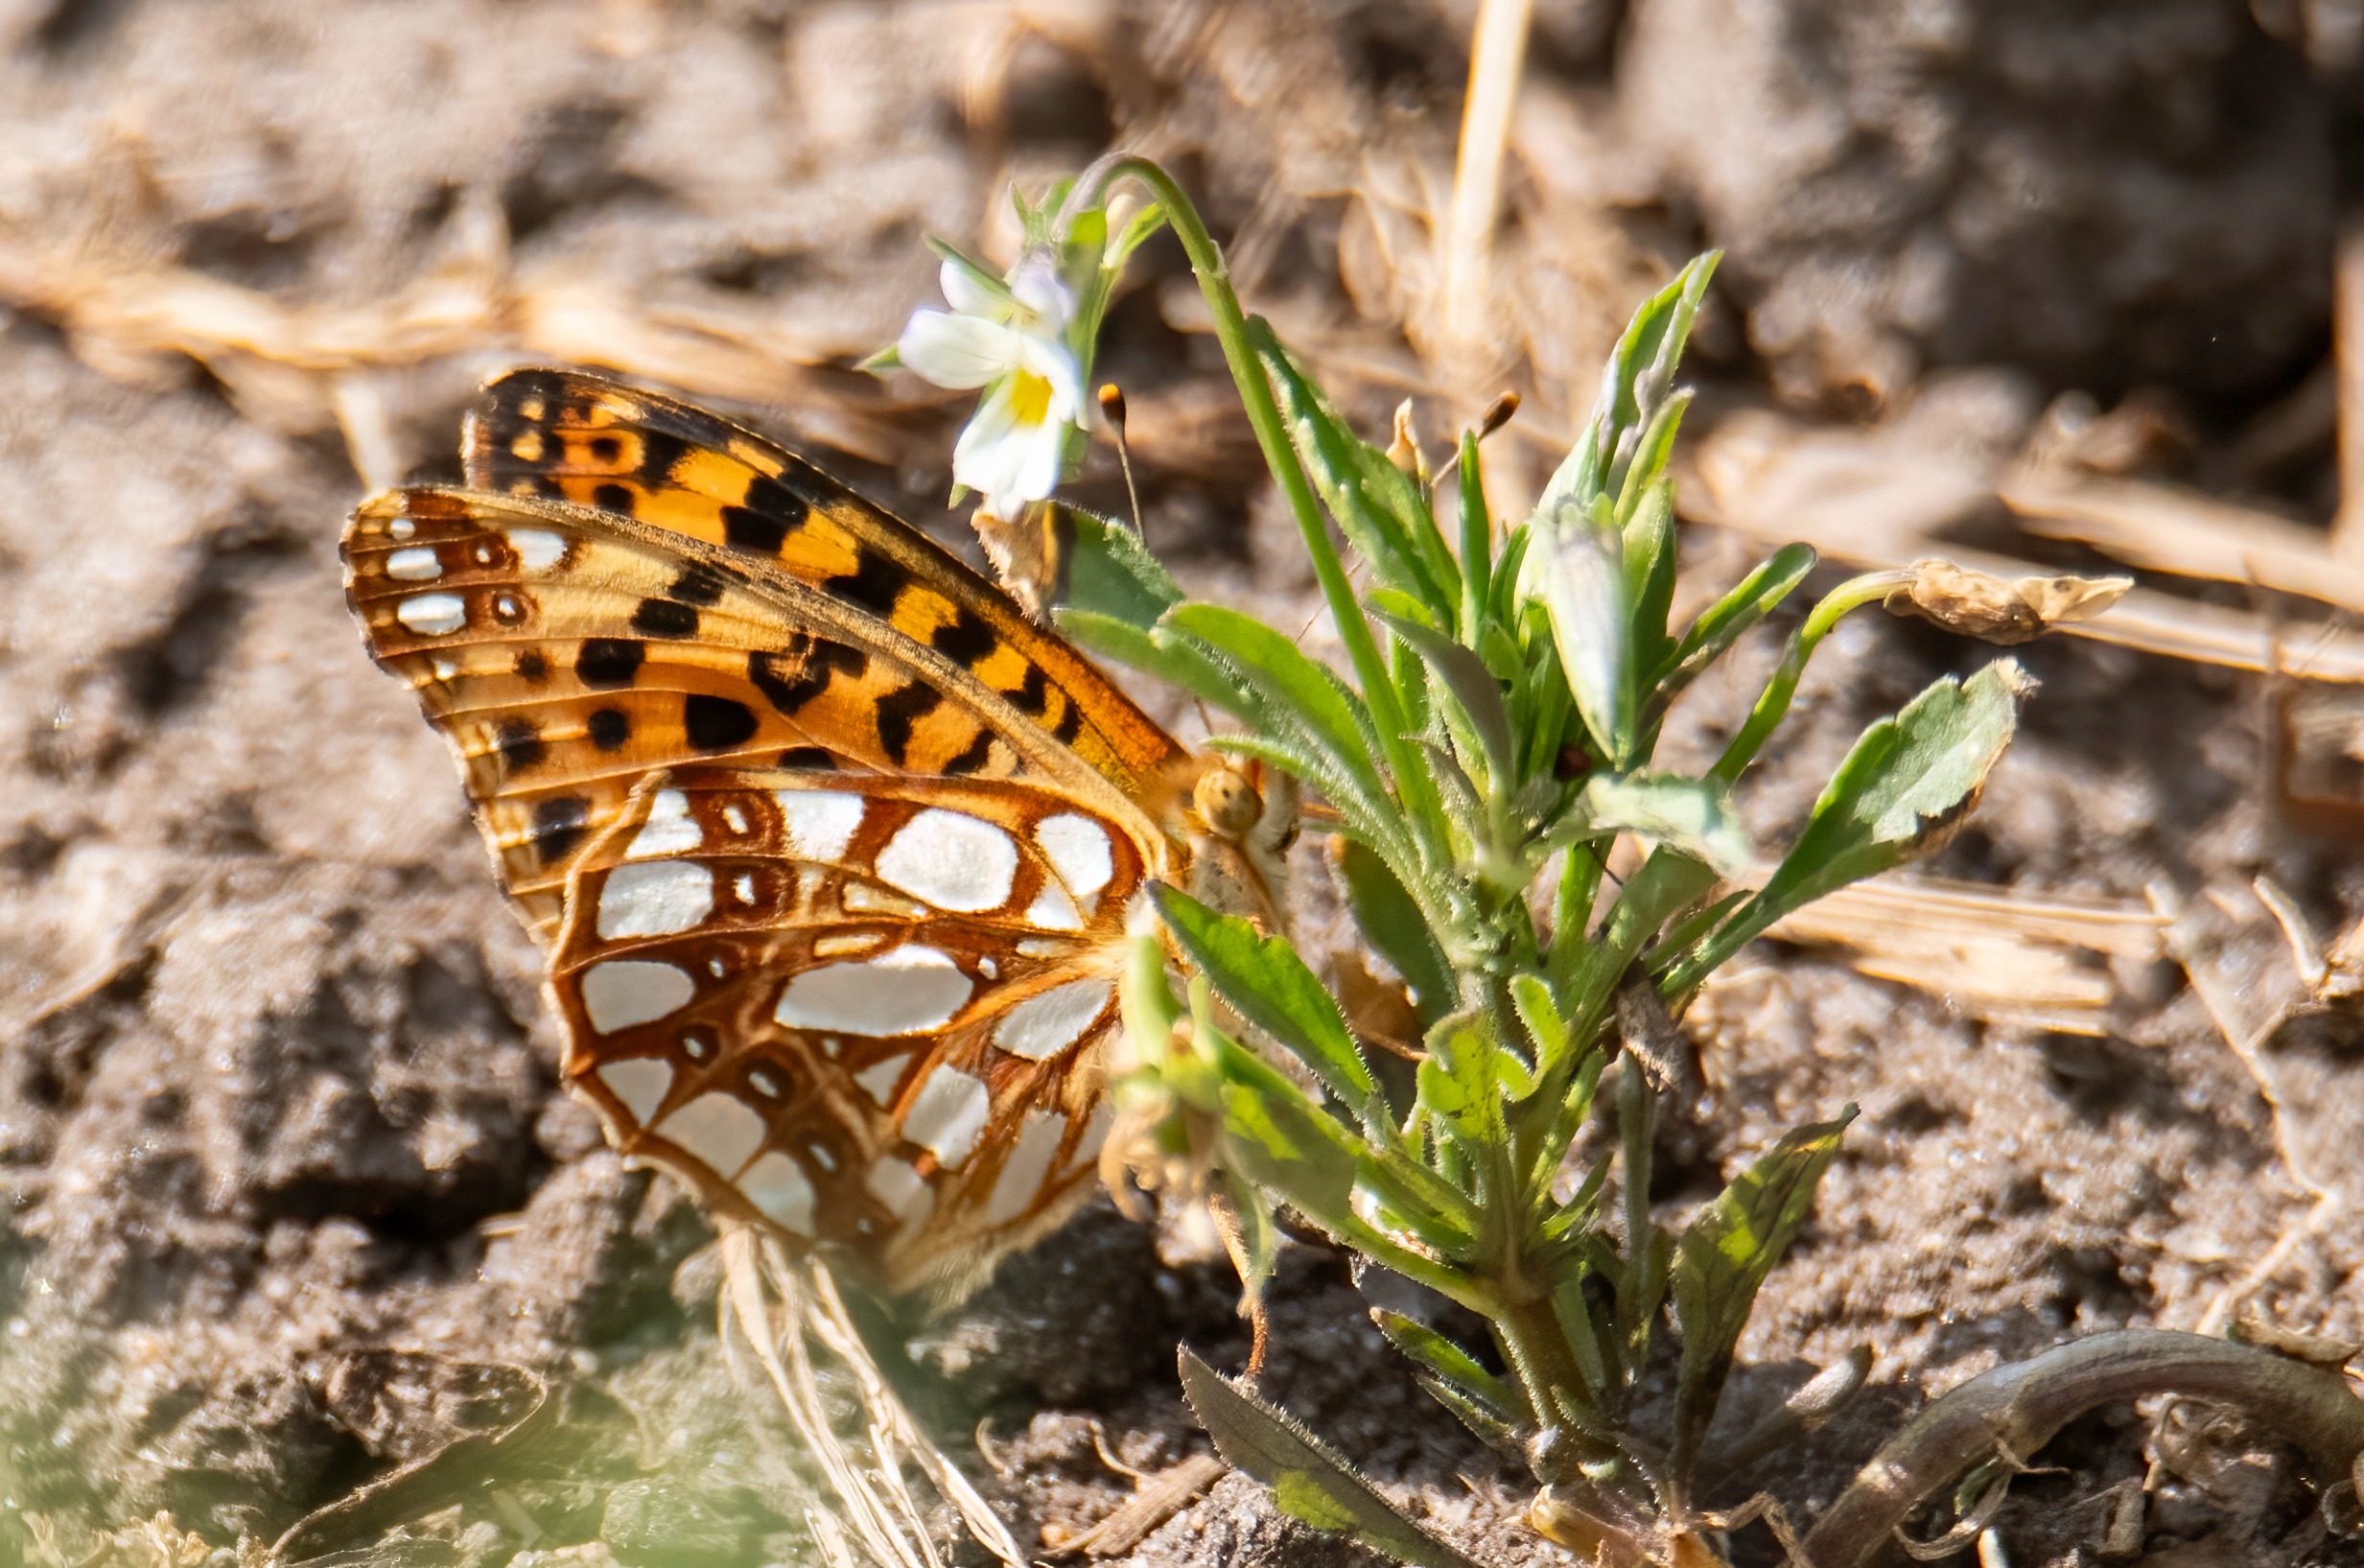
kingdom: Animalia
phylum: Arthropoda
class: Insecta
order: Lepidoptera
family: Nymphalidae
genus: Issoria
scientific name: Issoria lathonia
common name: Storplettet perlemorsommerfugl
